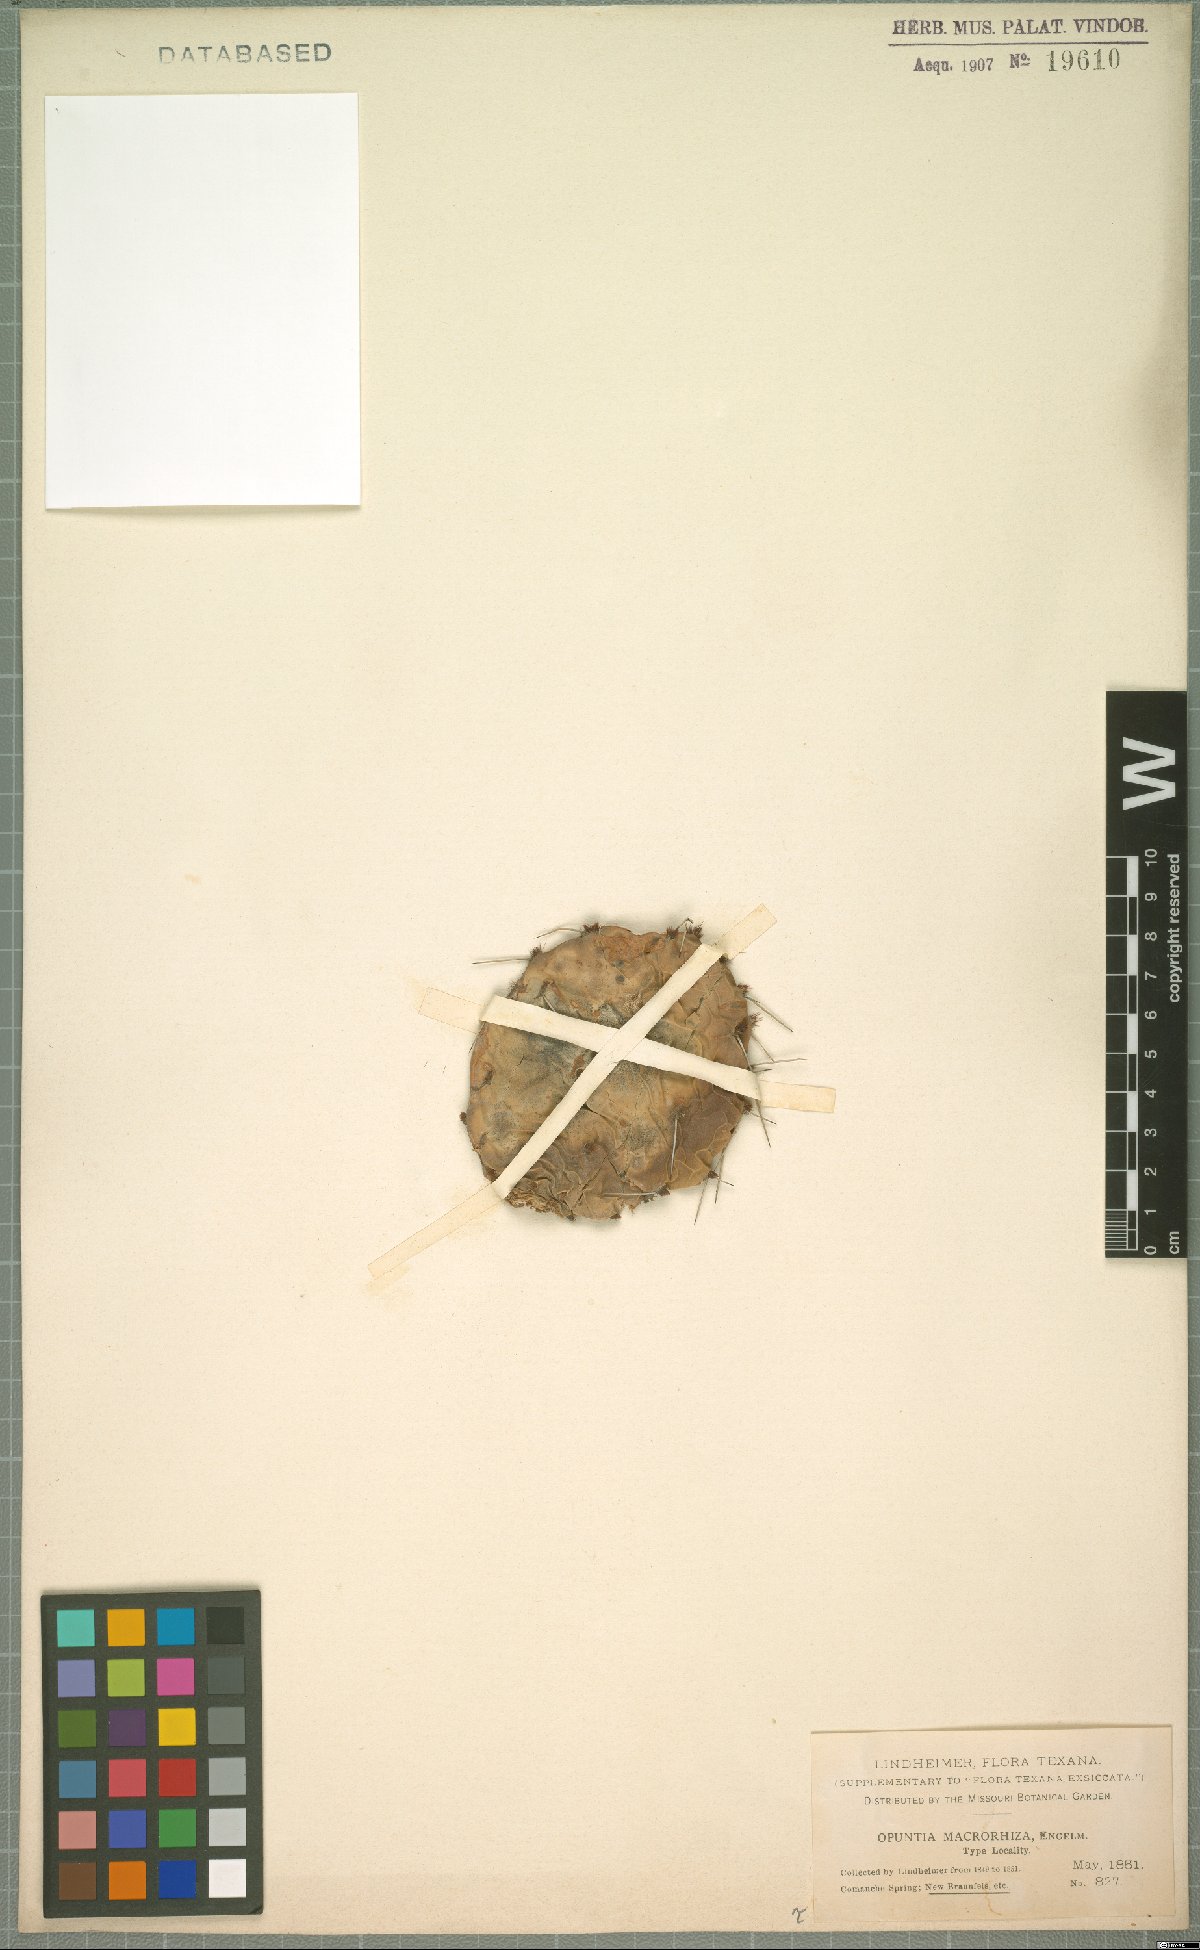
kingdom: Plantae
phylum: Tracheophyta
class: Magnoliopsida
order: Caryophyllales
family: Cactaceae
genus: Opuntia
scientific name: Opuntia macrorhiza
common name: Grassland pricklypear
